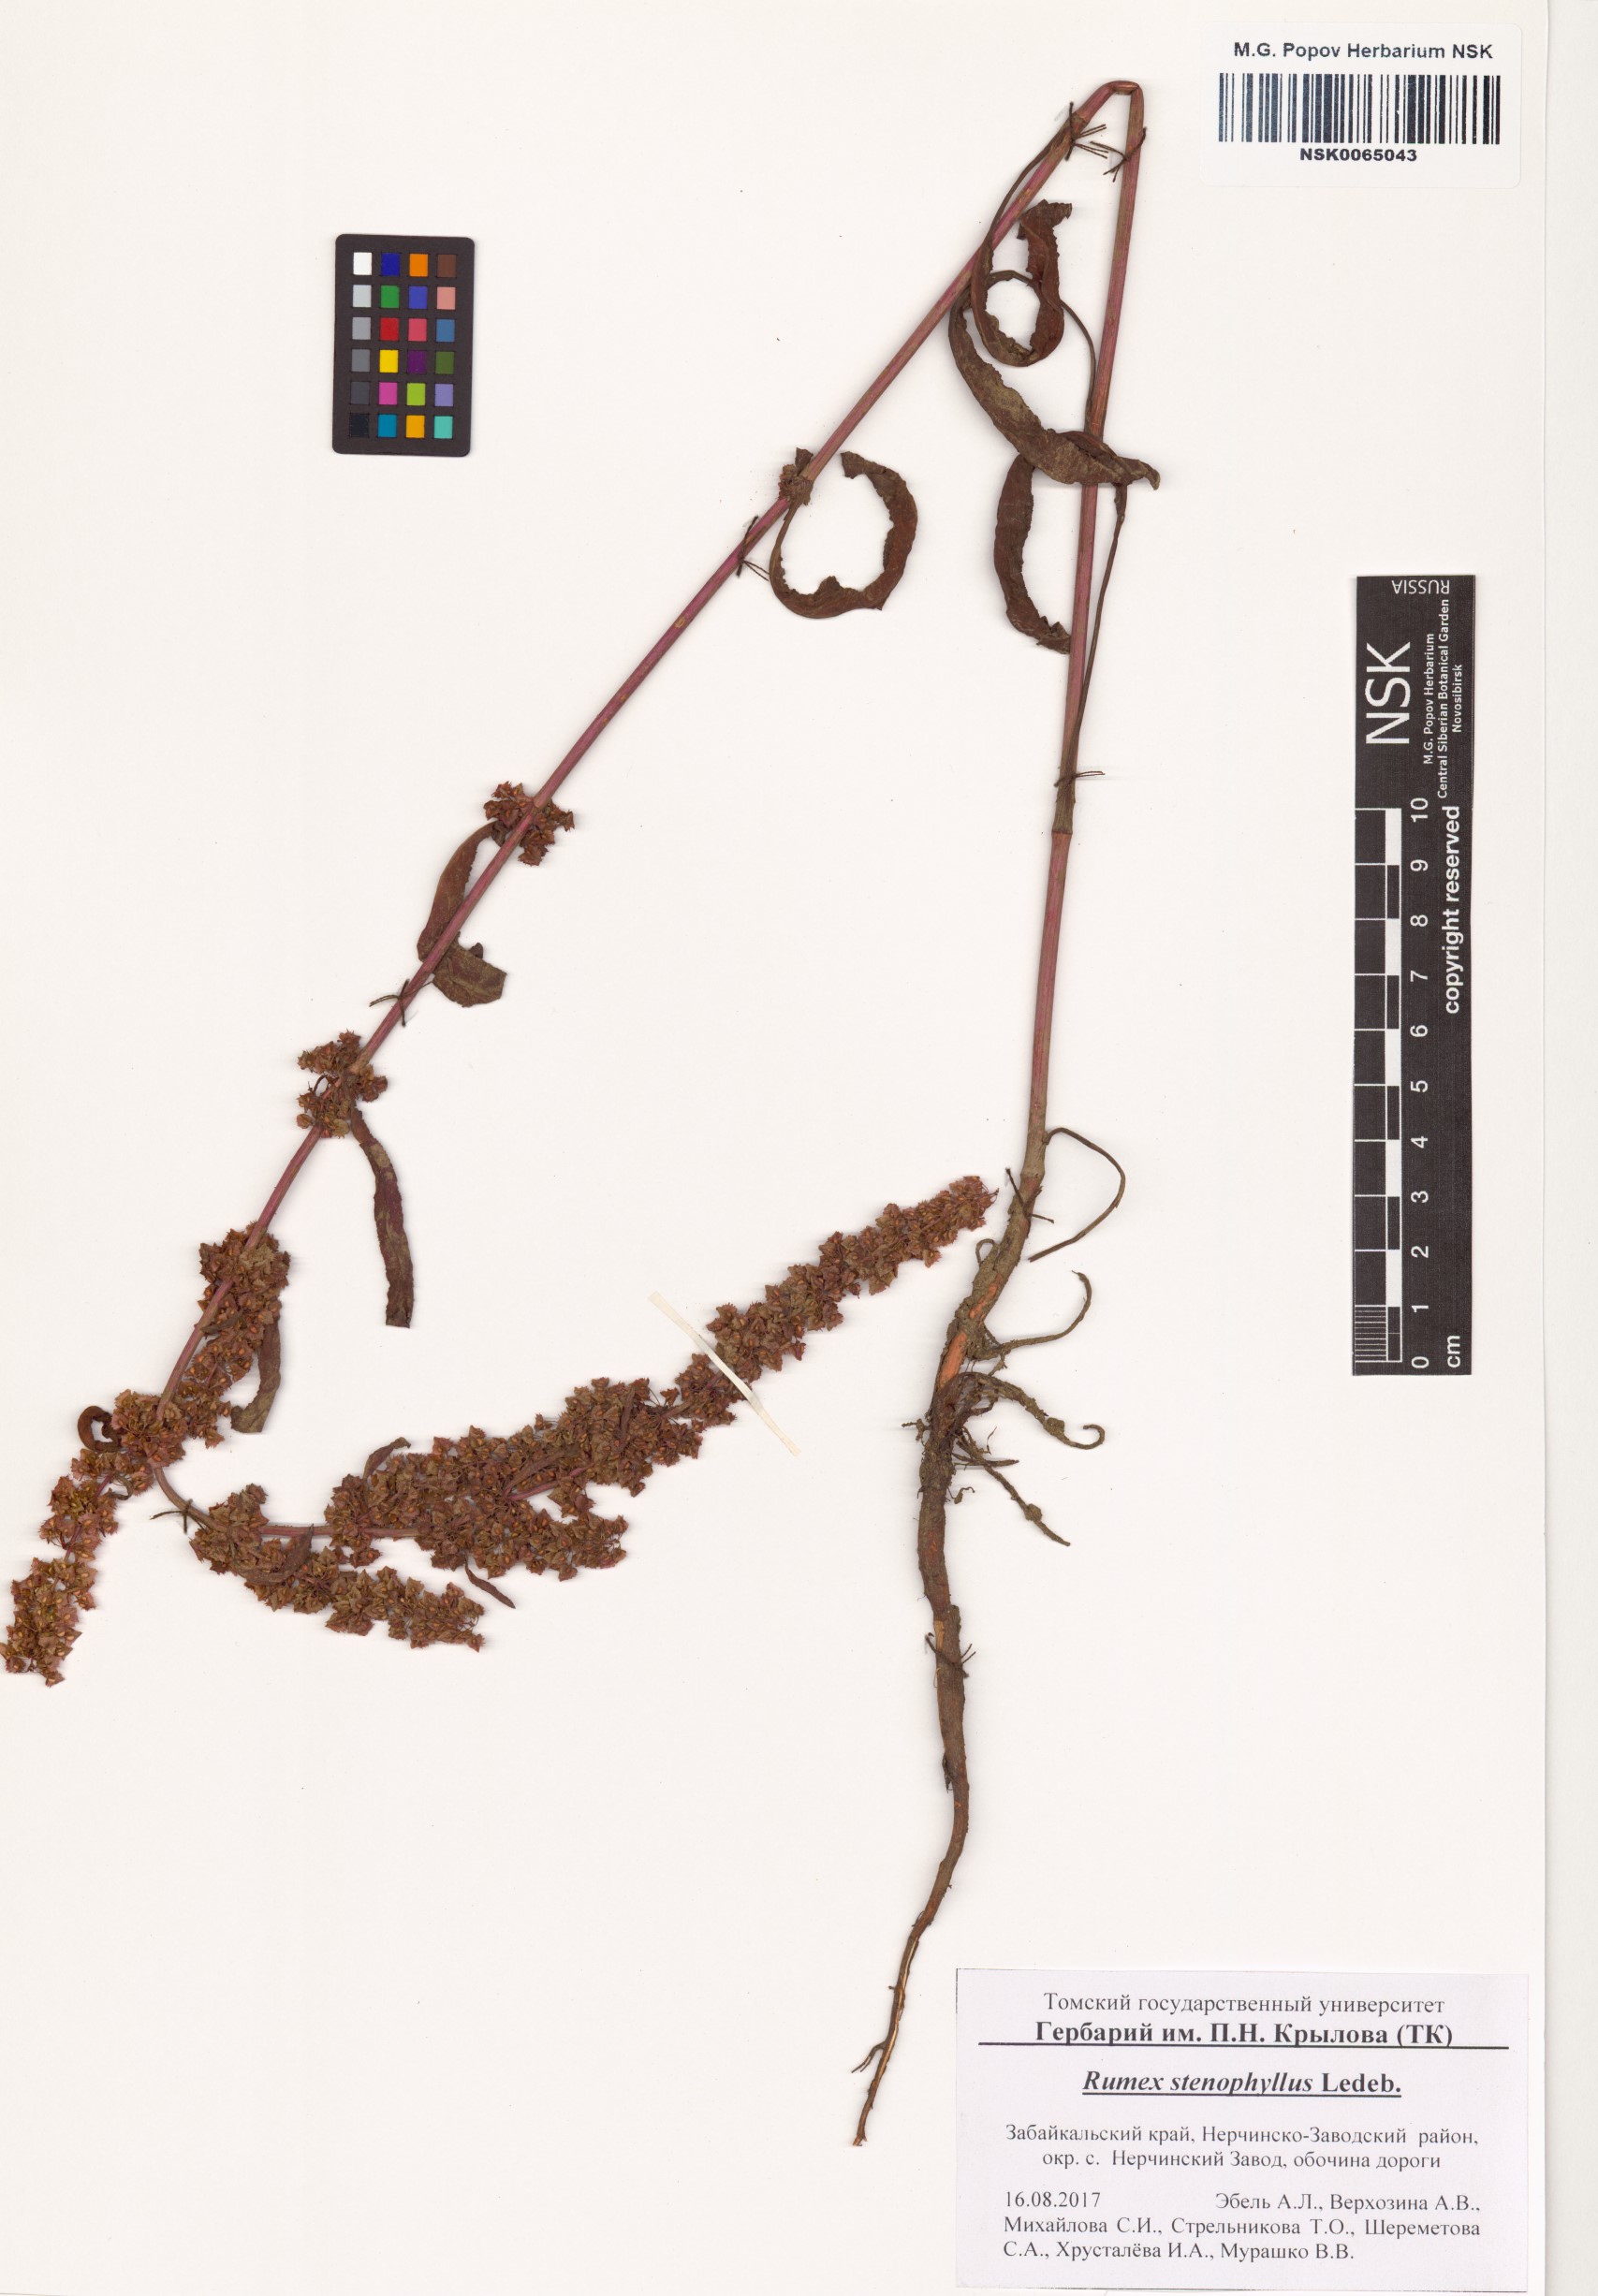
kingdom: Plantae
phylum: Tracheophyta
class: Magnoliopsida
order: Caryophyllales
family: Polygonaceae
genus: Rumex
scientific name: Rumex stenophyllus
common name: Narrowleaf dock
